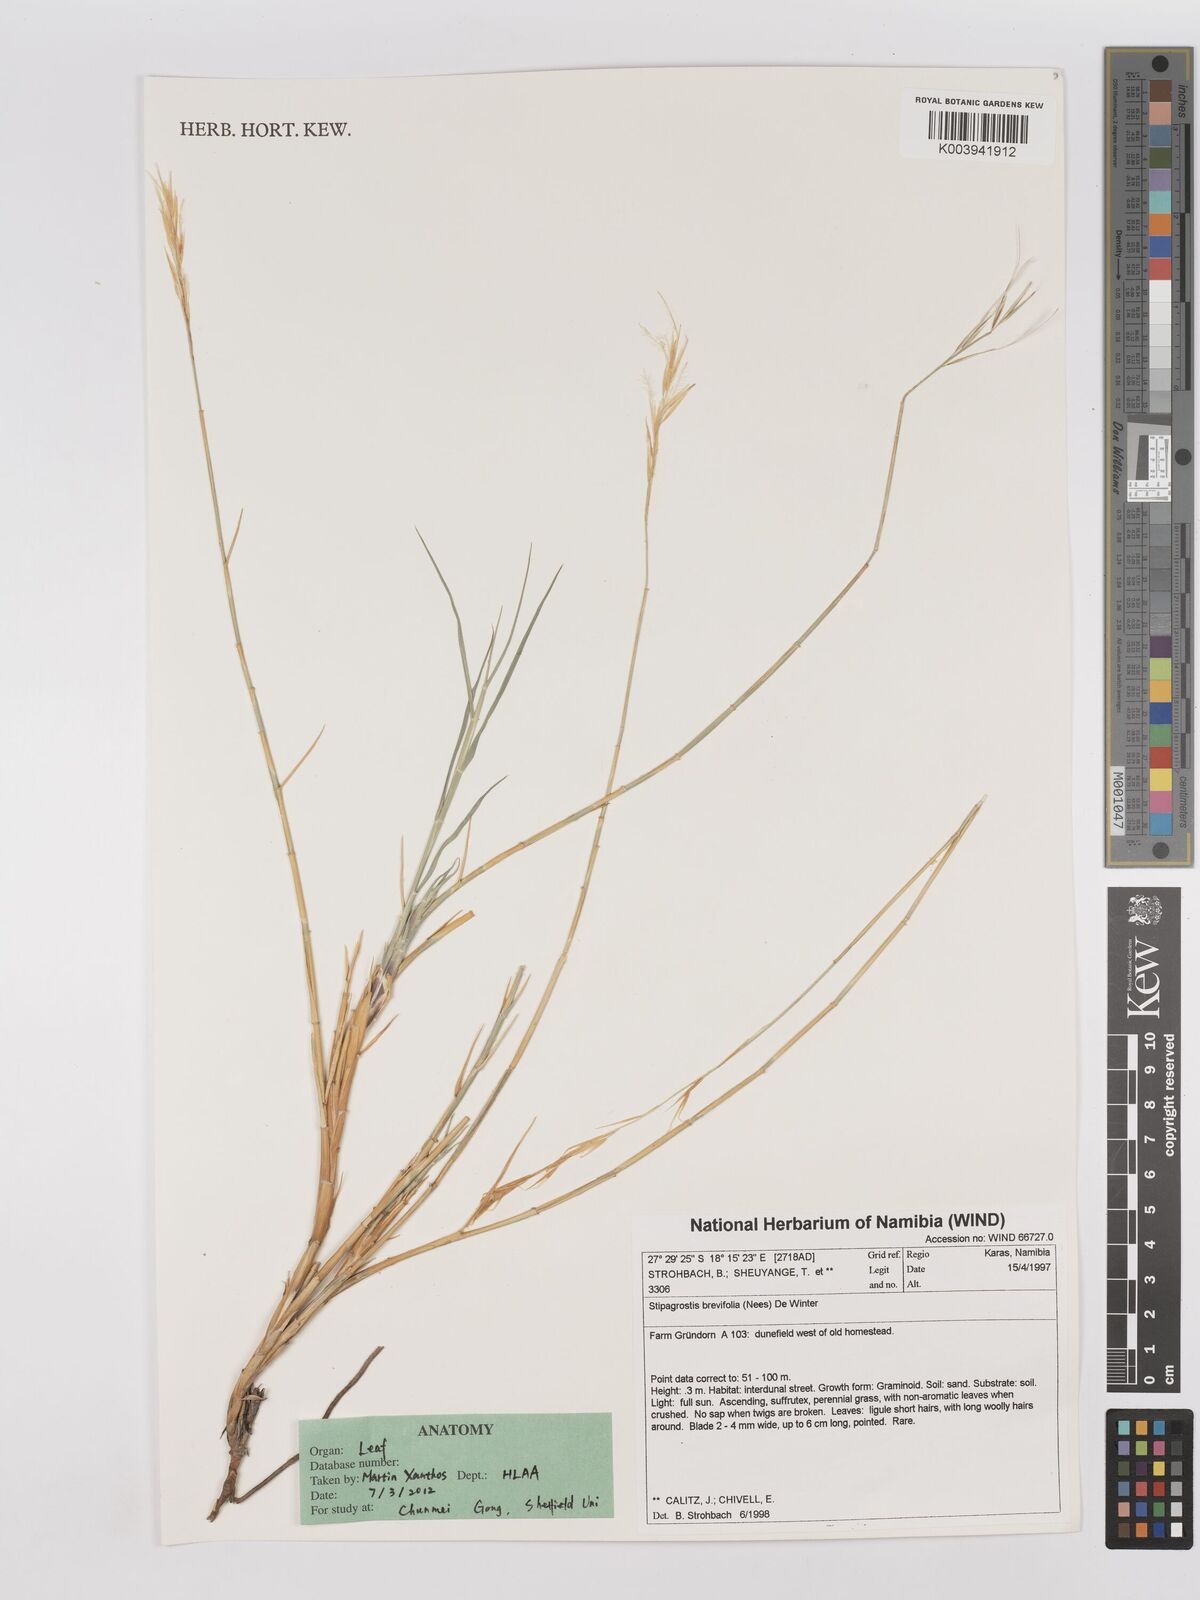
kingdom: Plantae
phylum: Tracheophyta
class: Liliopsida
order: Poales
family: Poaceae
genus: Stipagrostis
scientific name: Stipagrostis brevifolia
